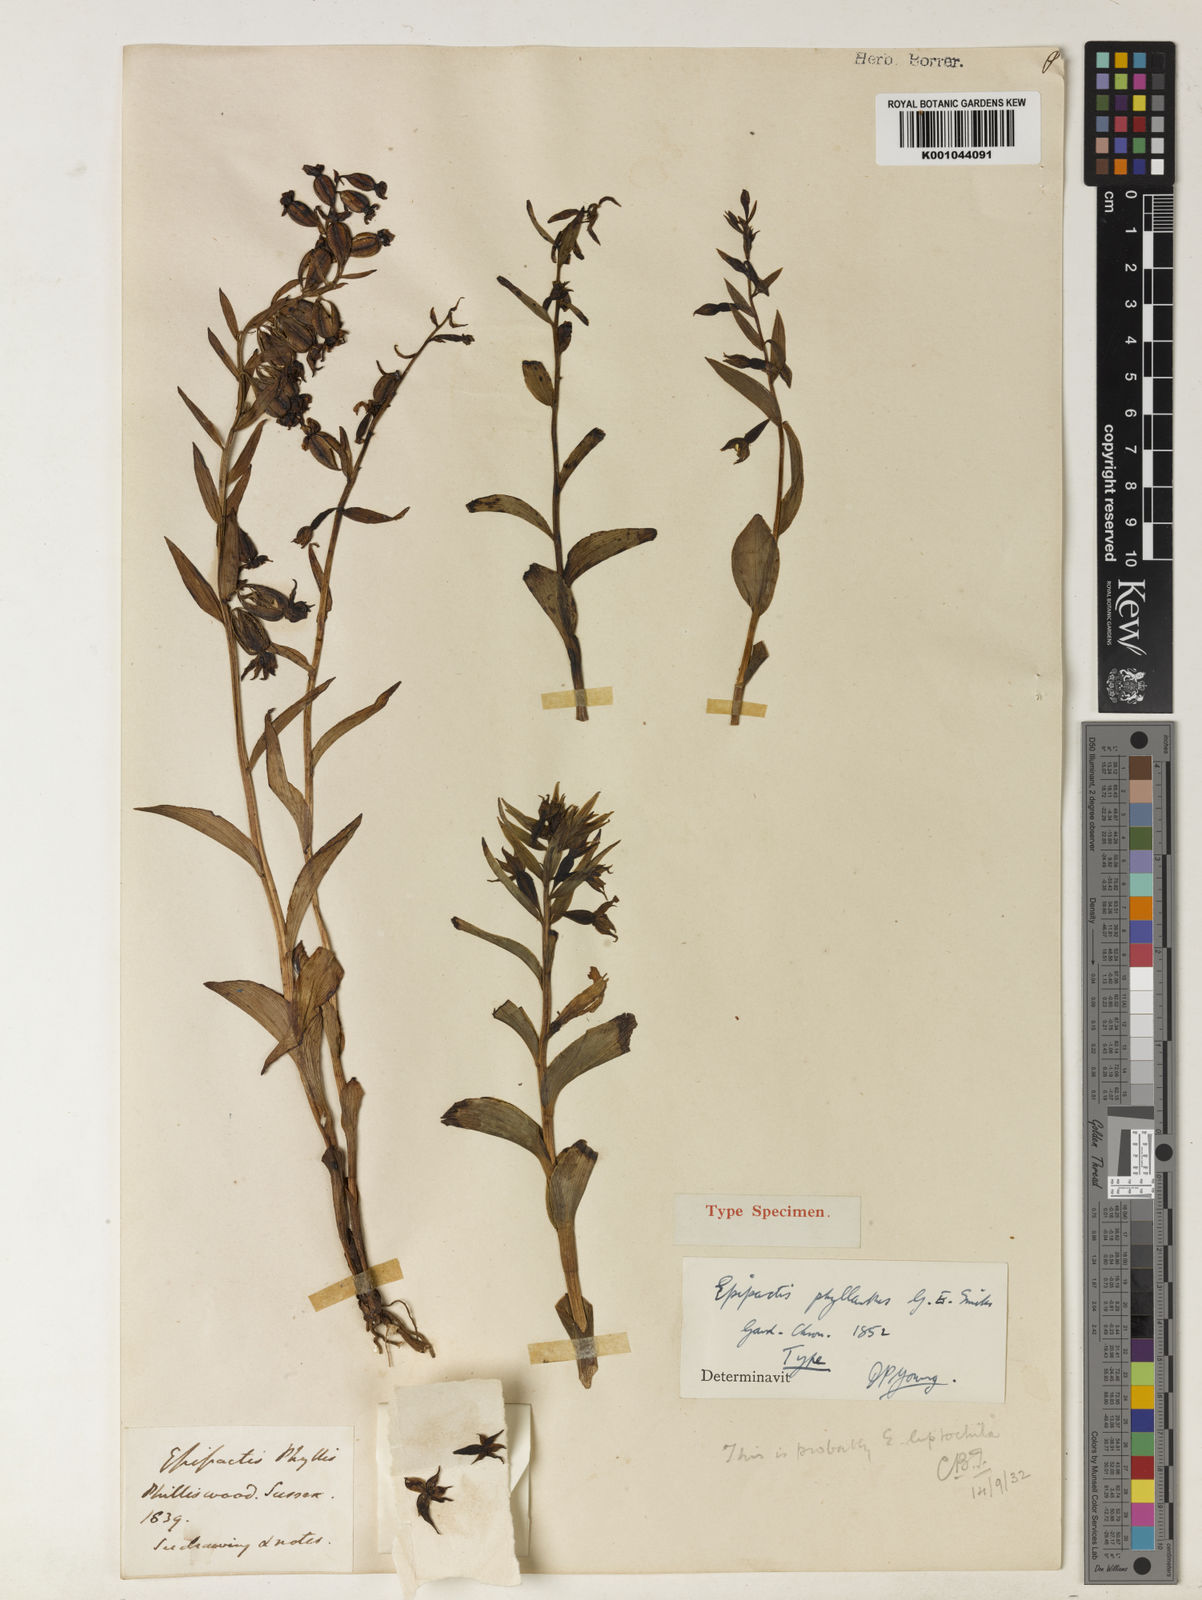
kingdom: Plantae
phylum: Tracheophyta
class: Liliopsida
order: Asparagales
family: Orchidaceae
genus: Epipactis
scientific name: Epipactis phyllanthes
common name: Green-flowered helleborine
